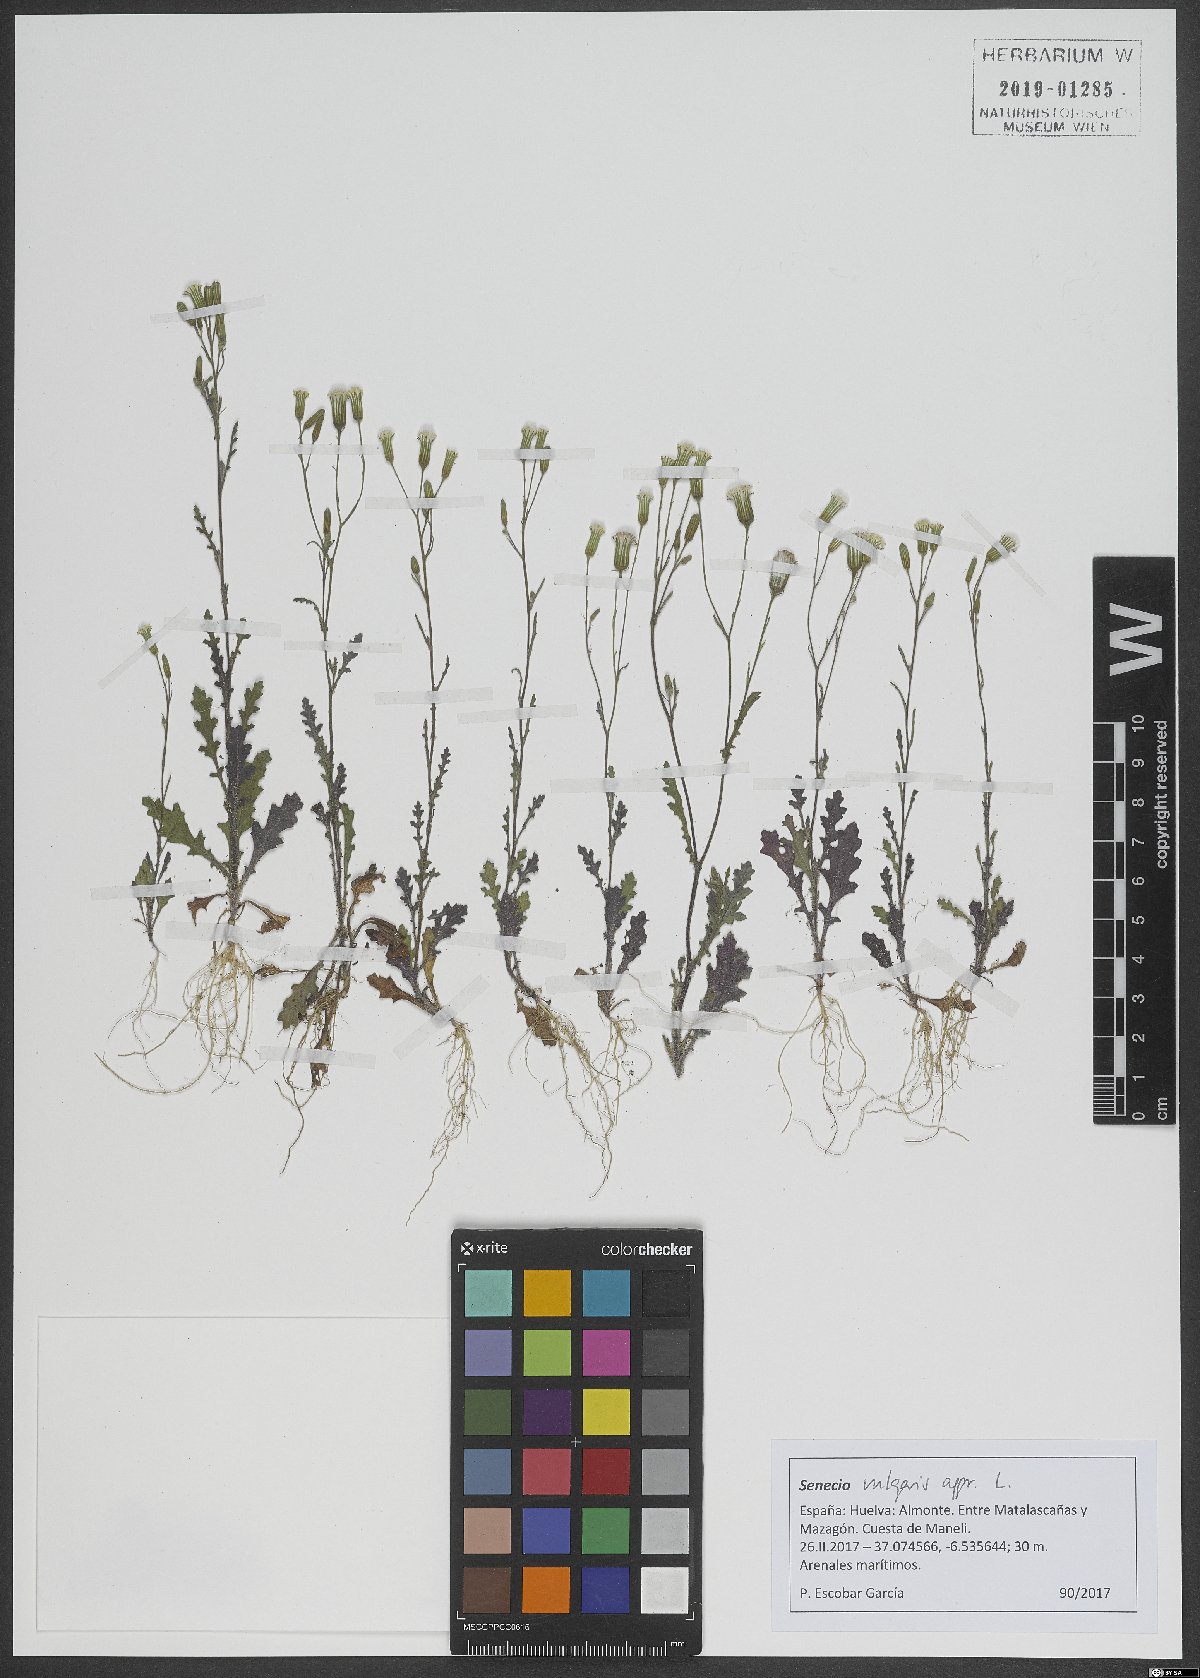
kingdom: Plantae
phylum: Tracheophyta
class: Magnoliopsida
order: Asterales
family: Asteraceae
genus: Senecio
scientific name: Senecio vulgaris
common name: Old-man-in-the-spring
